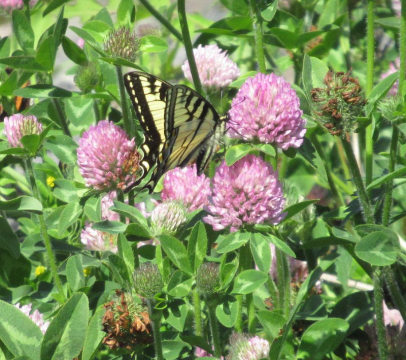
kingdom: Animalia
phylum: Arthropoda
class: Insecta
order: Lepidoptera
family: Papilionidae
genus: Pterourus
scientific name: Pterourus canadensis
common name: Canadian Tiger Swallowtail
